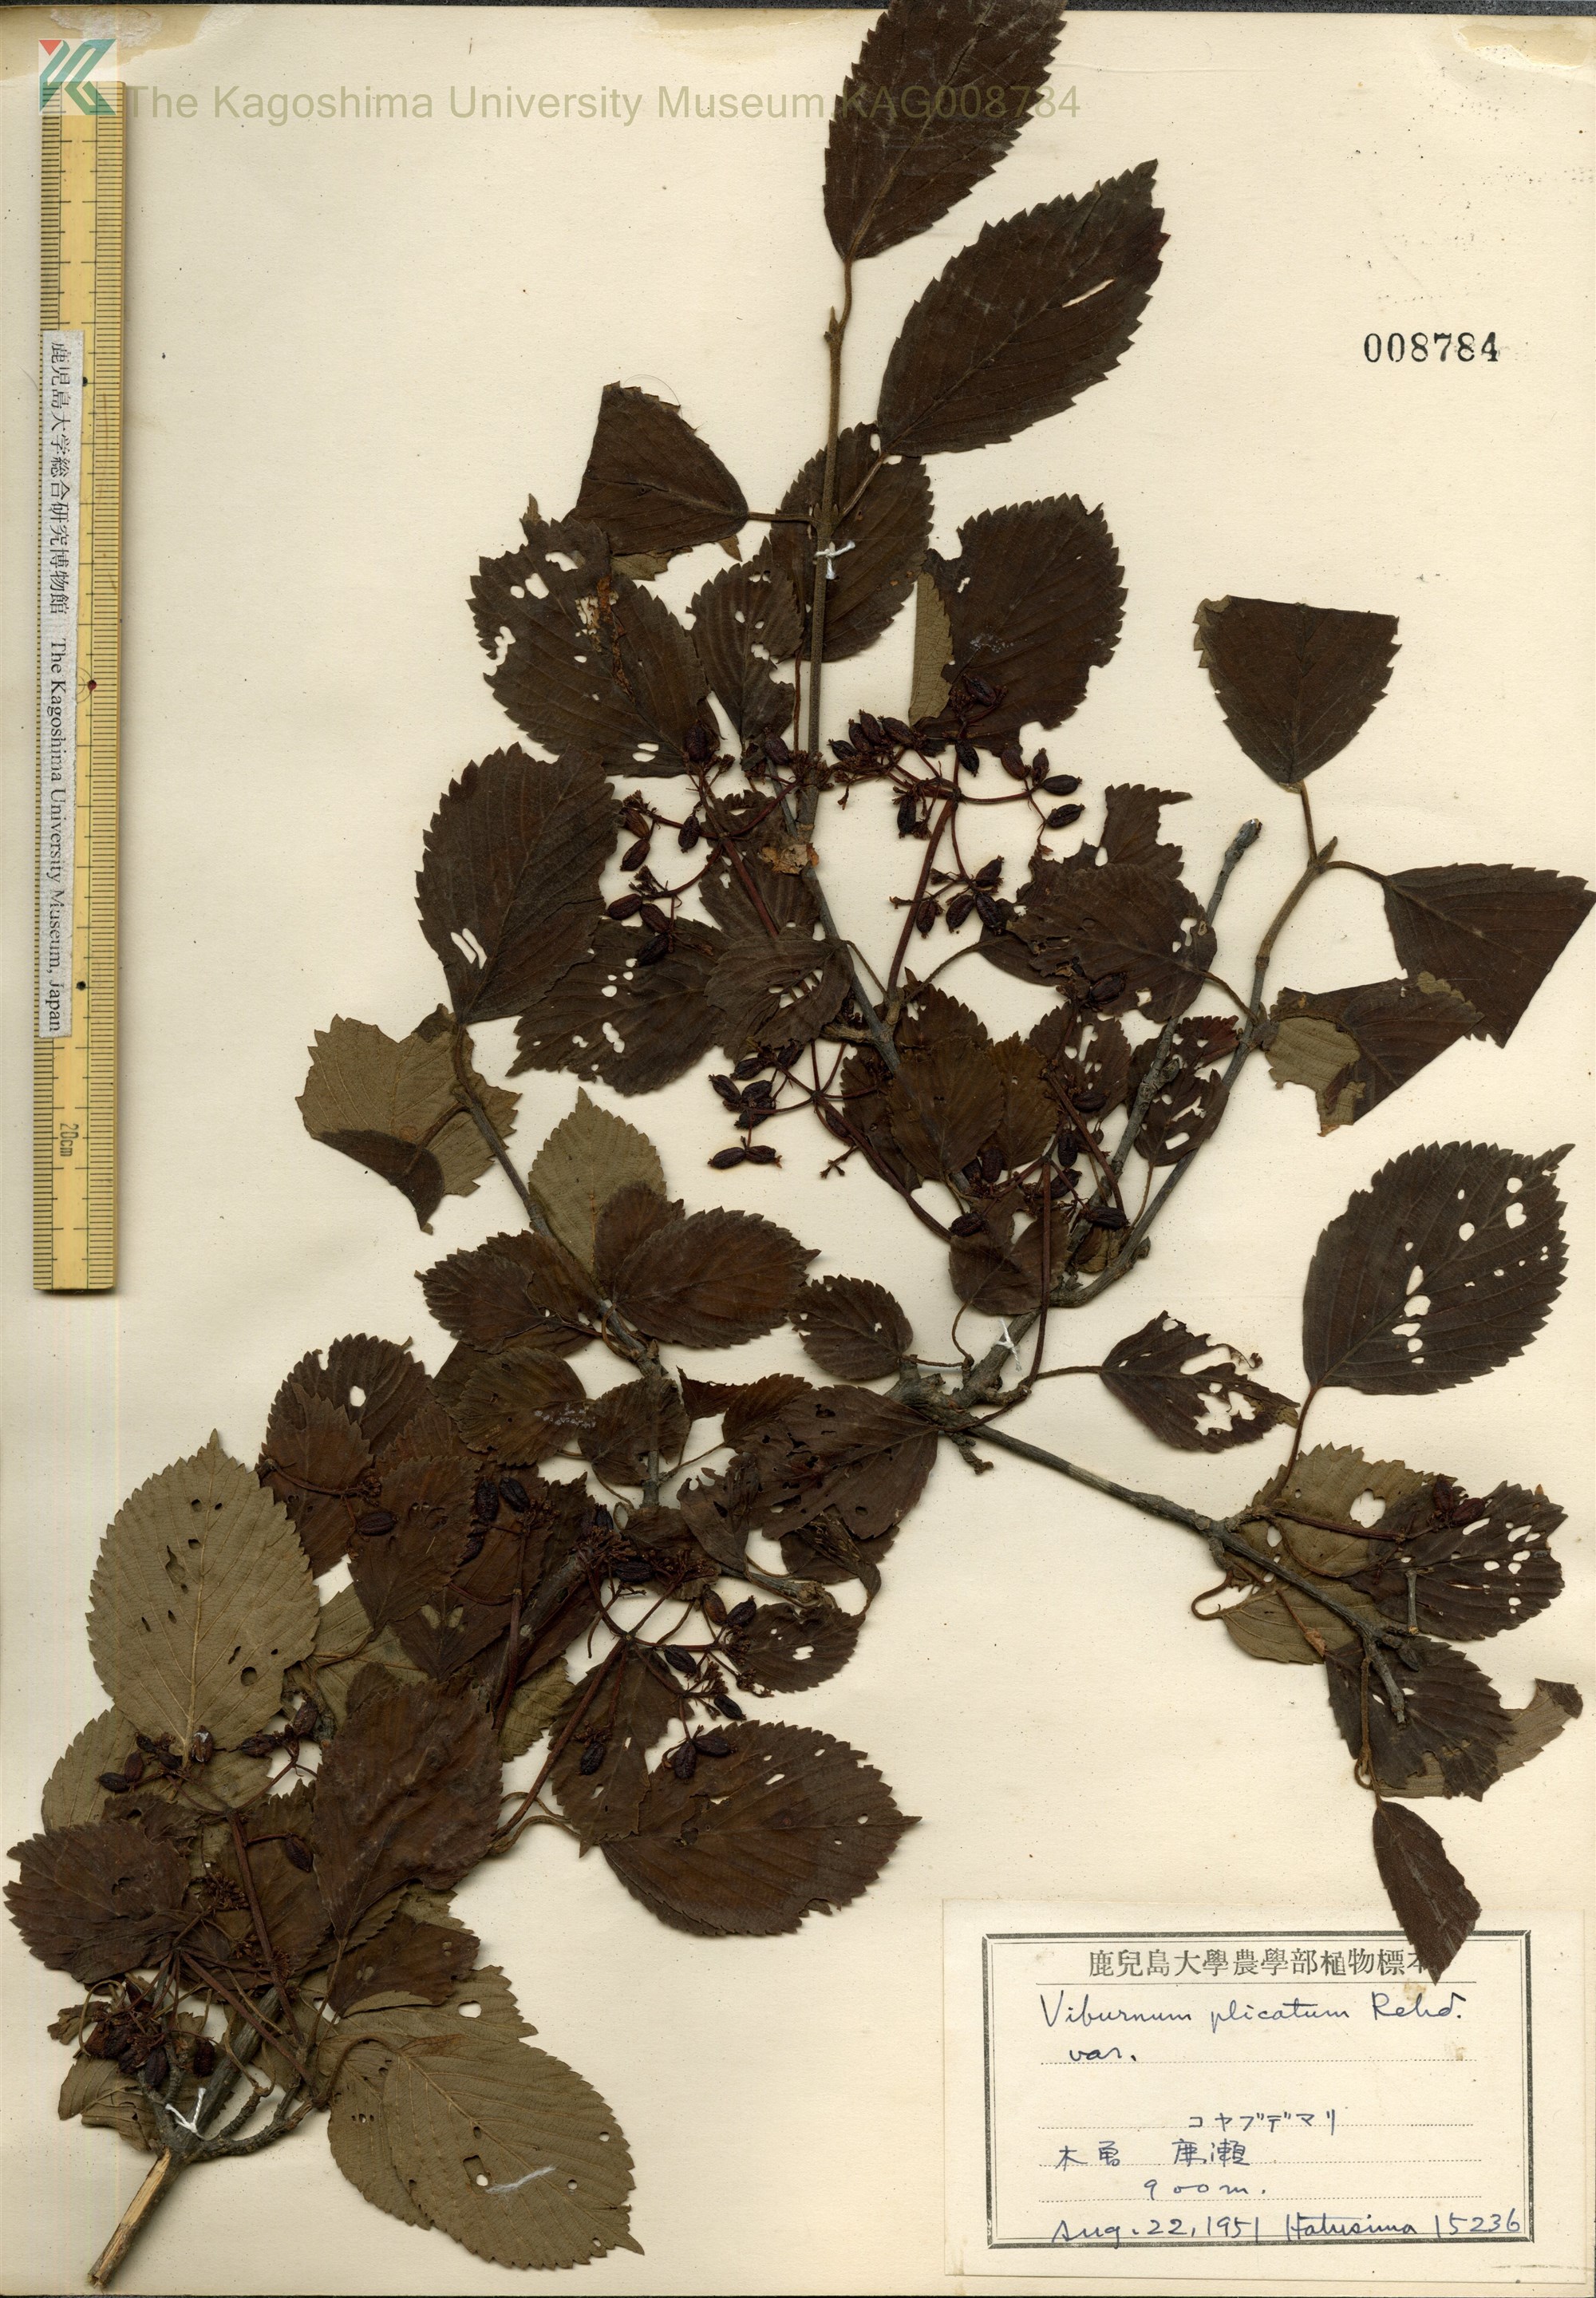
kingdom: Plantae
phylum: Tracheophyta
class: Magnoliopsida
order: Dipsacales
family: Viburnaceae
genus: Viburnum
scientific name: Viburnum plicatum
